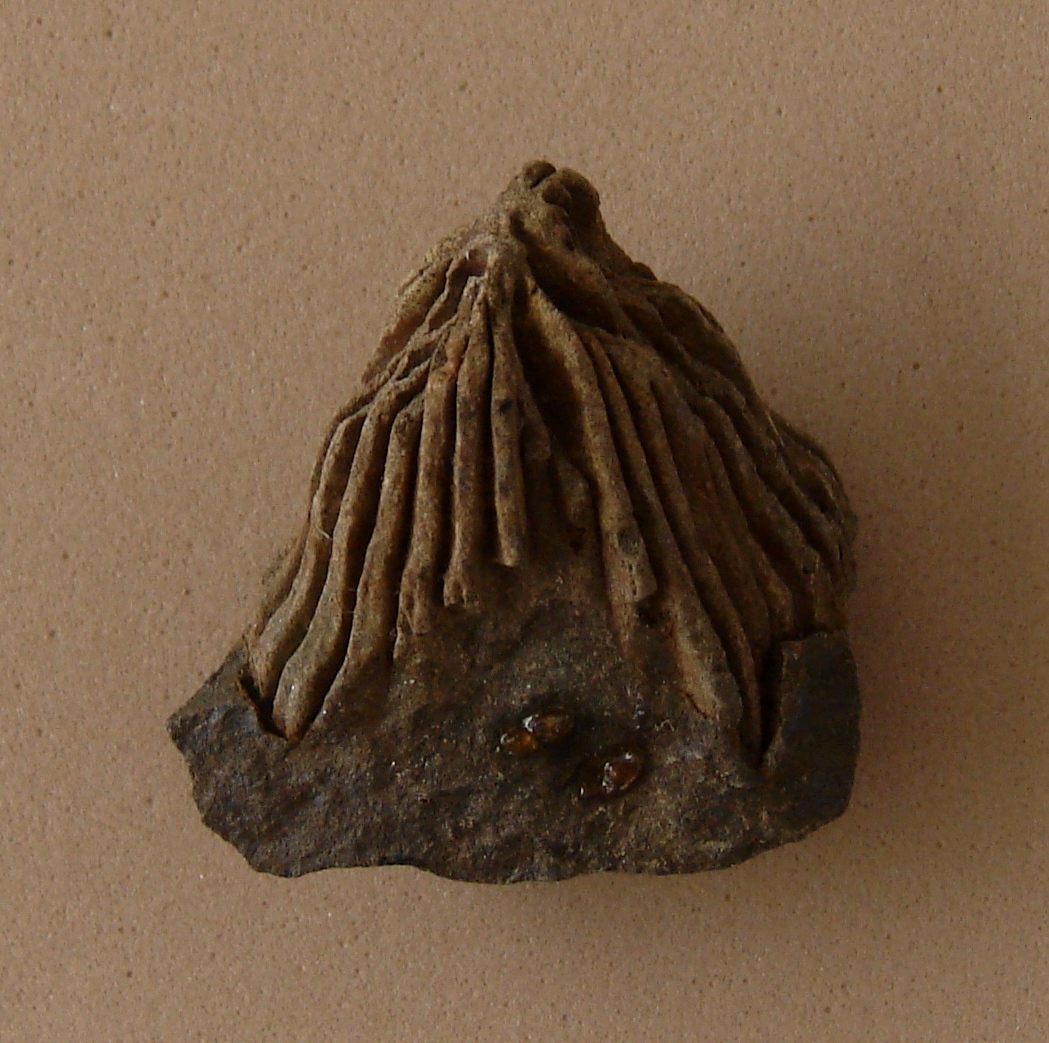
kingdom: Animalia
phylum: Cnidaria
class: Anthozoa
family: Hapsiphyllidae
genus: Hapsiphyllum
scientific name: Hapsiphyllum
